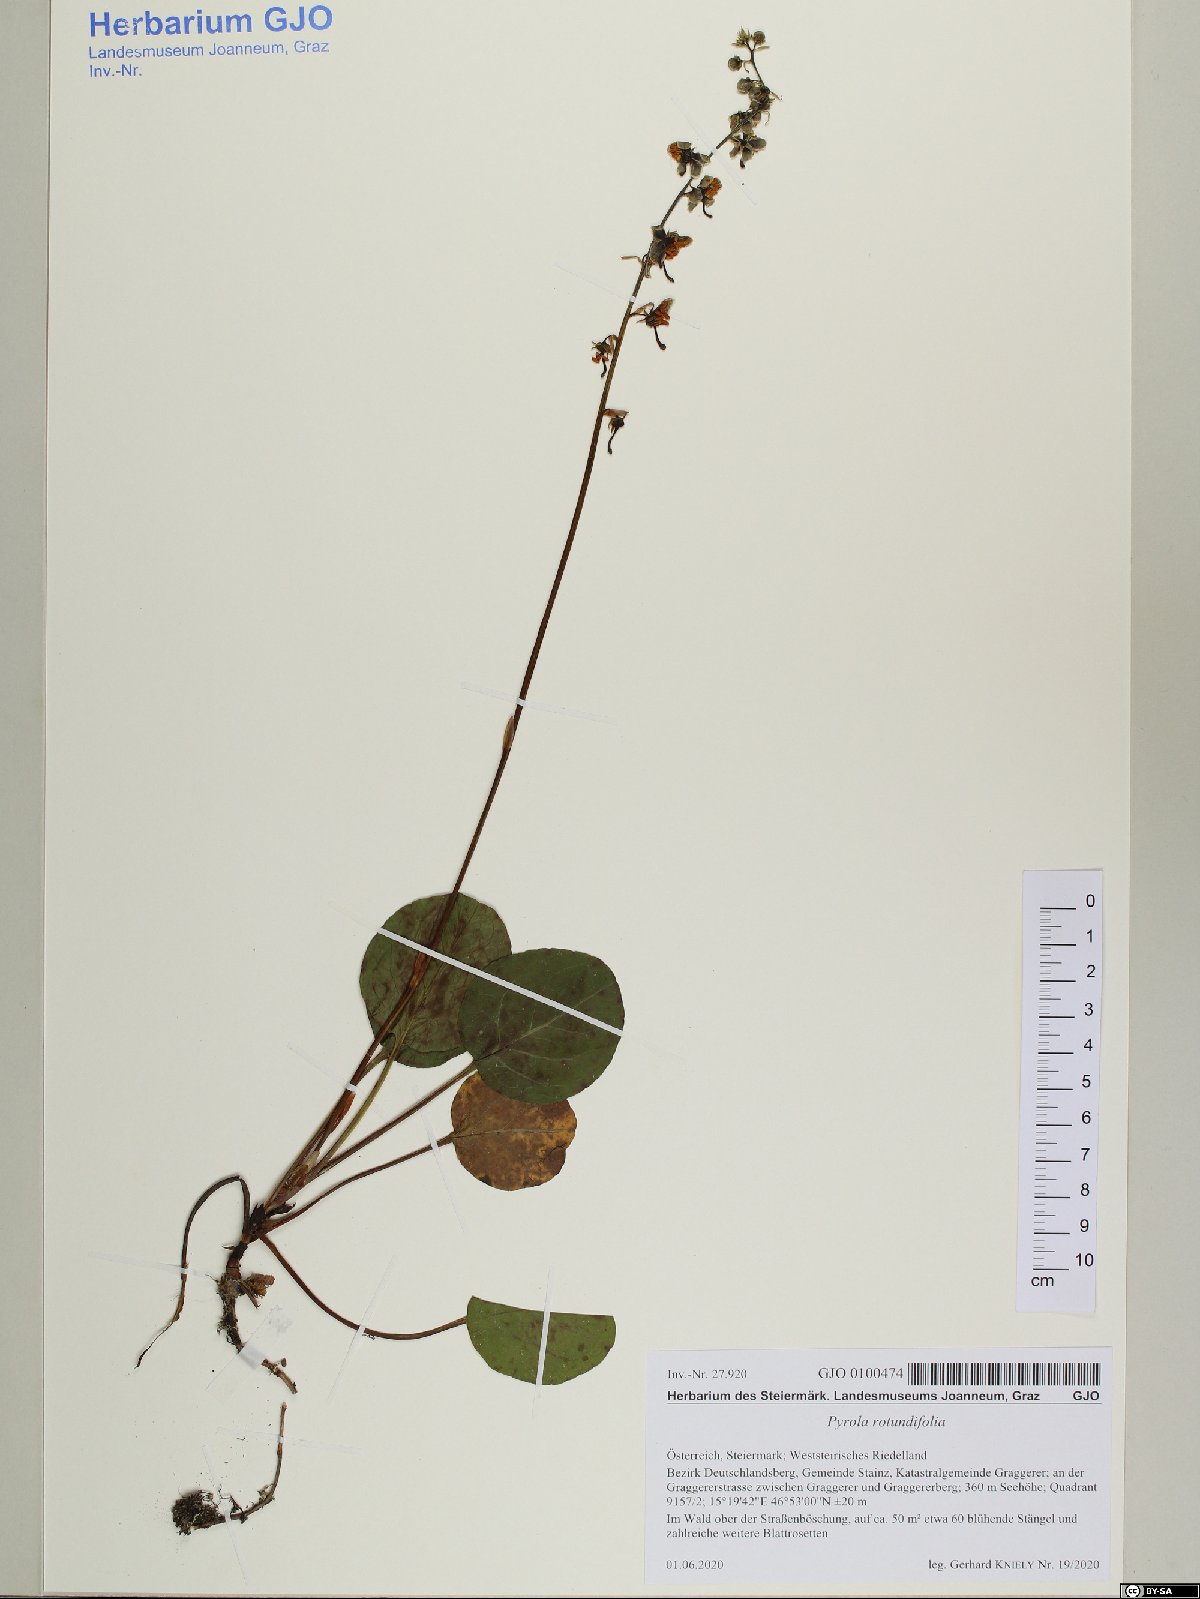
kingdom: Plantae
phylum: Tracheophyta
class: Magnoliopsida
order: Ericales
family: Ericaceae
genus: Pyrola
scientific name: Pyrola rotundifolia
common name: Round-leaved wintergreen
